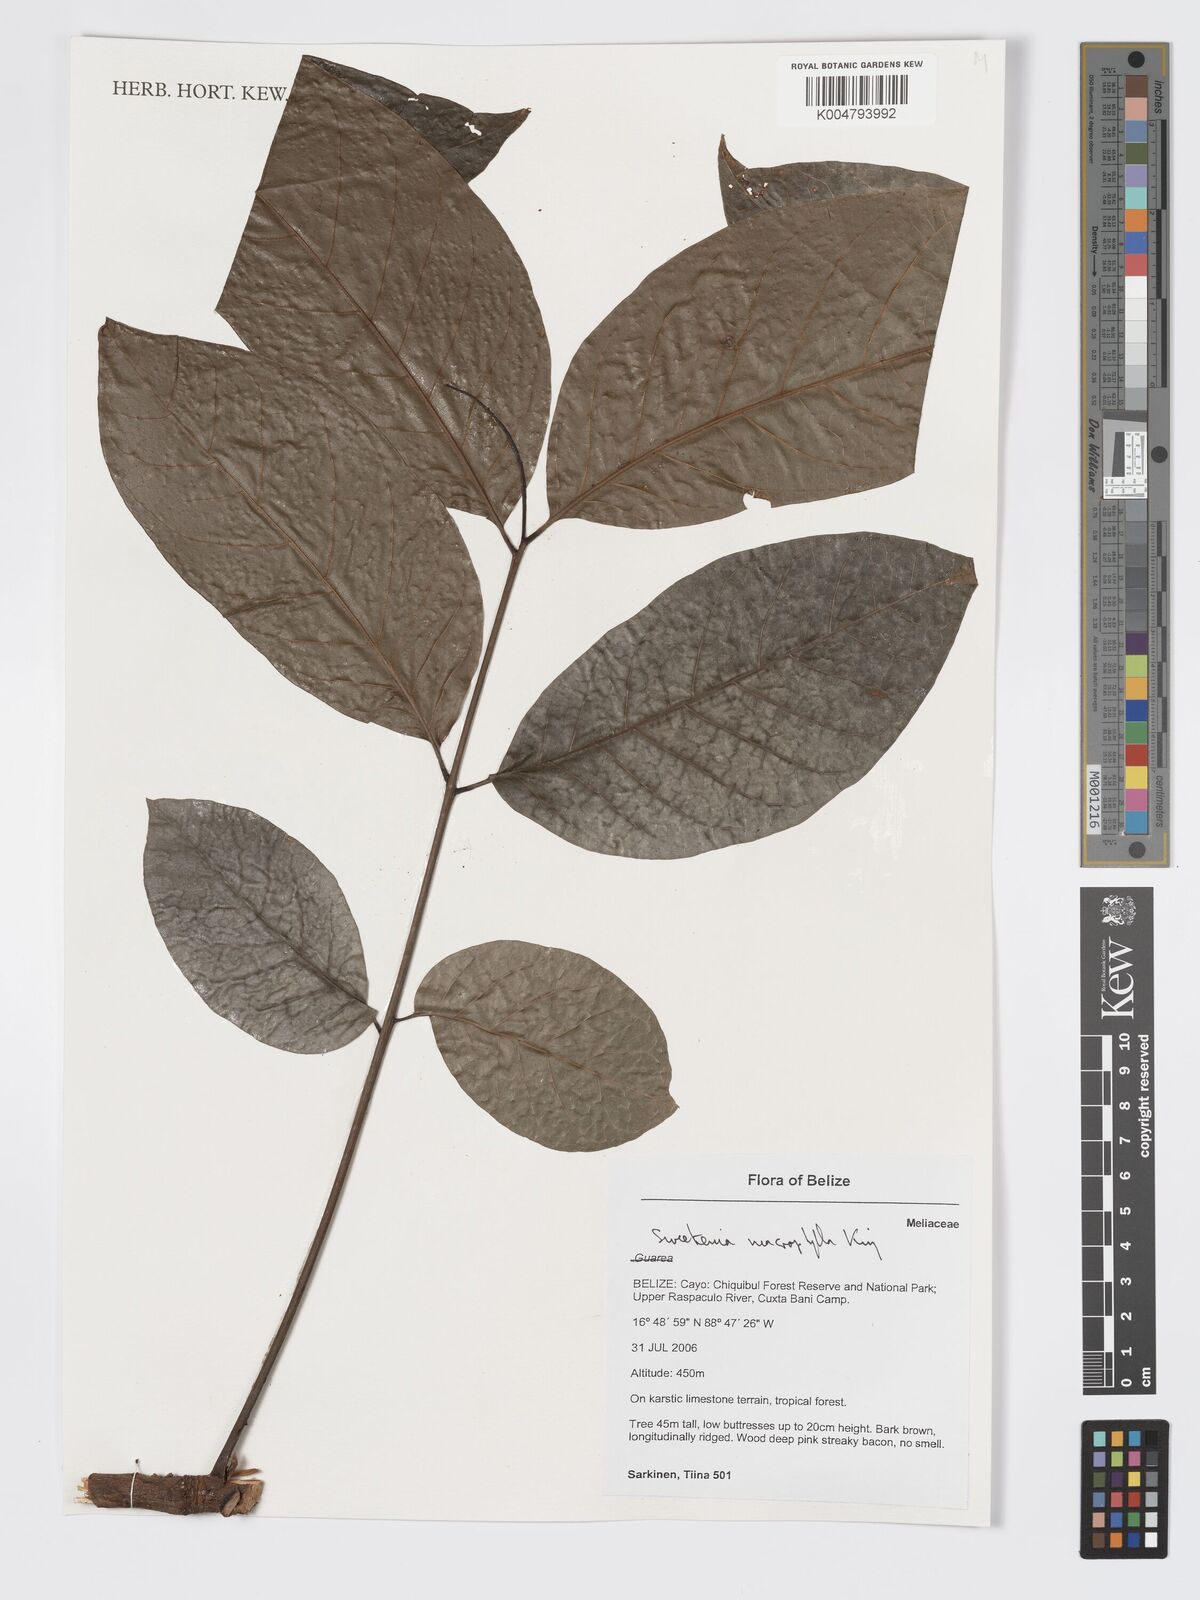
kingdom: Plantae
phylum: Tracheophyta
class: Magnoliopsida
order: Sapindales
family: Meliaceae
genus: Swietenia
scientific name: Swietenia macrophylla
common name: Honduras mahogany
